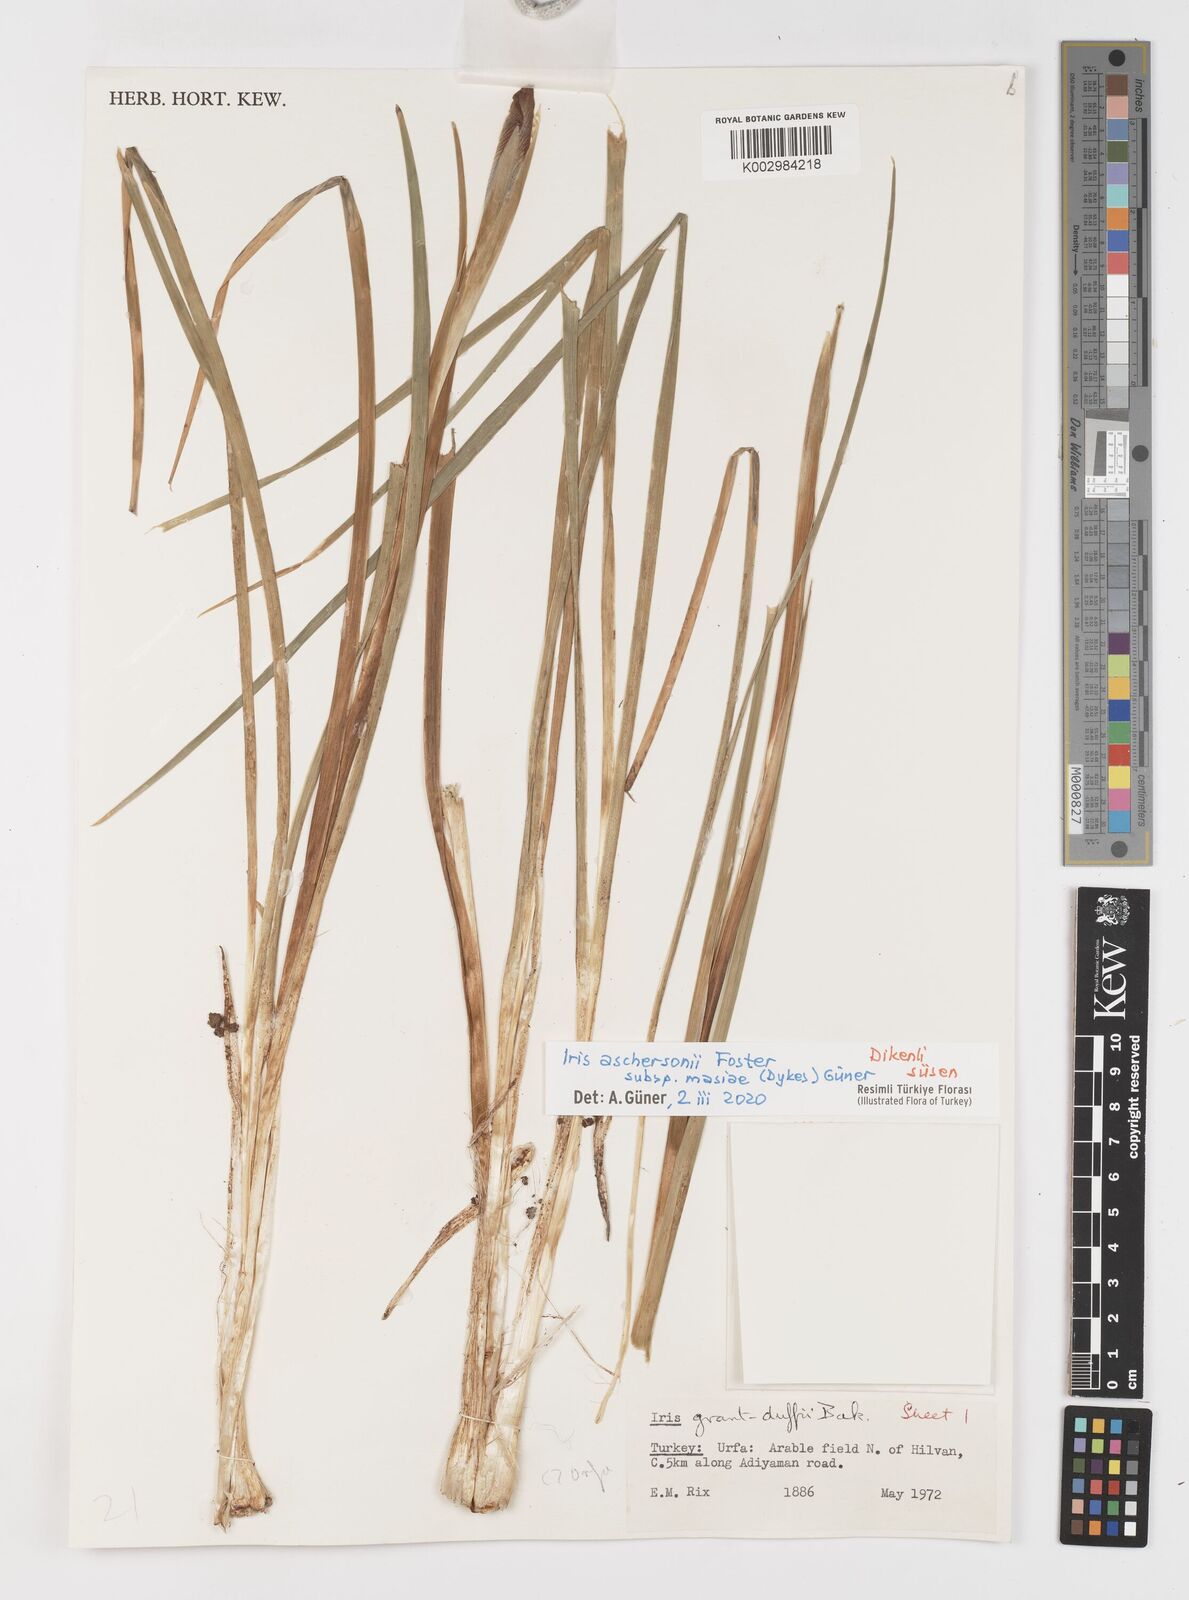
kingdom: Plantae
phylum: Tracheophyta
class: Liliopsida
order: Asparagales
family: Iridaceae
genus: Iris
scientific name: Iris grant-duffii
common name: Grant duff's iris
